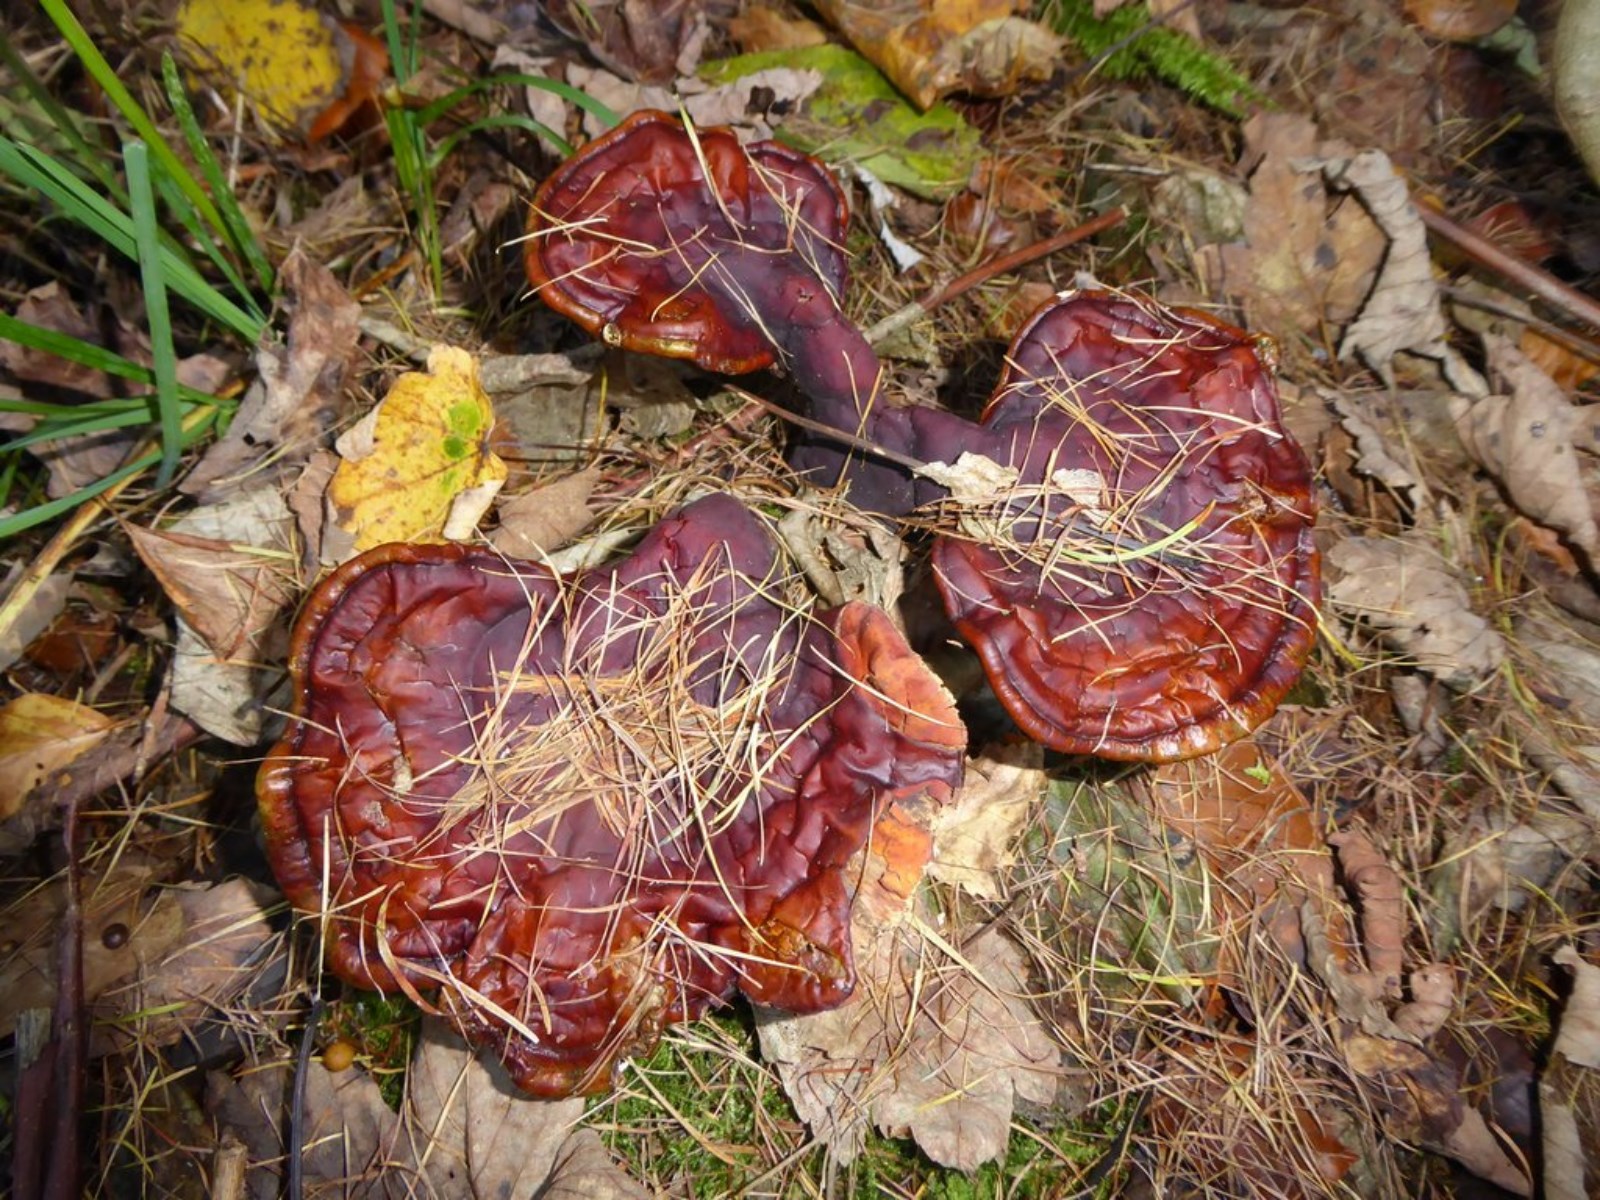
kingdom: Fungi
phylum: Basidiomycota
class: Agaricomycetes
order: Polyporales
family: Polyporaceae
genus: Ganoderma
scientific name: Ganoderma lucidum
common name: skinnende lakporesvamp
